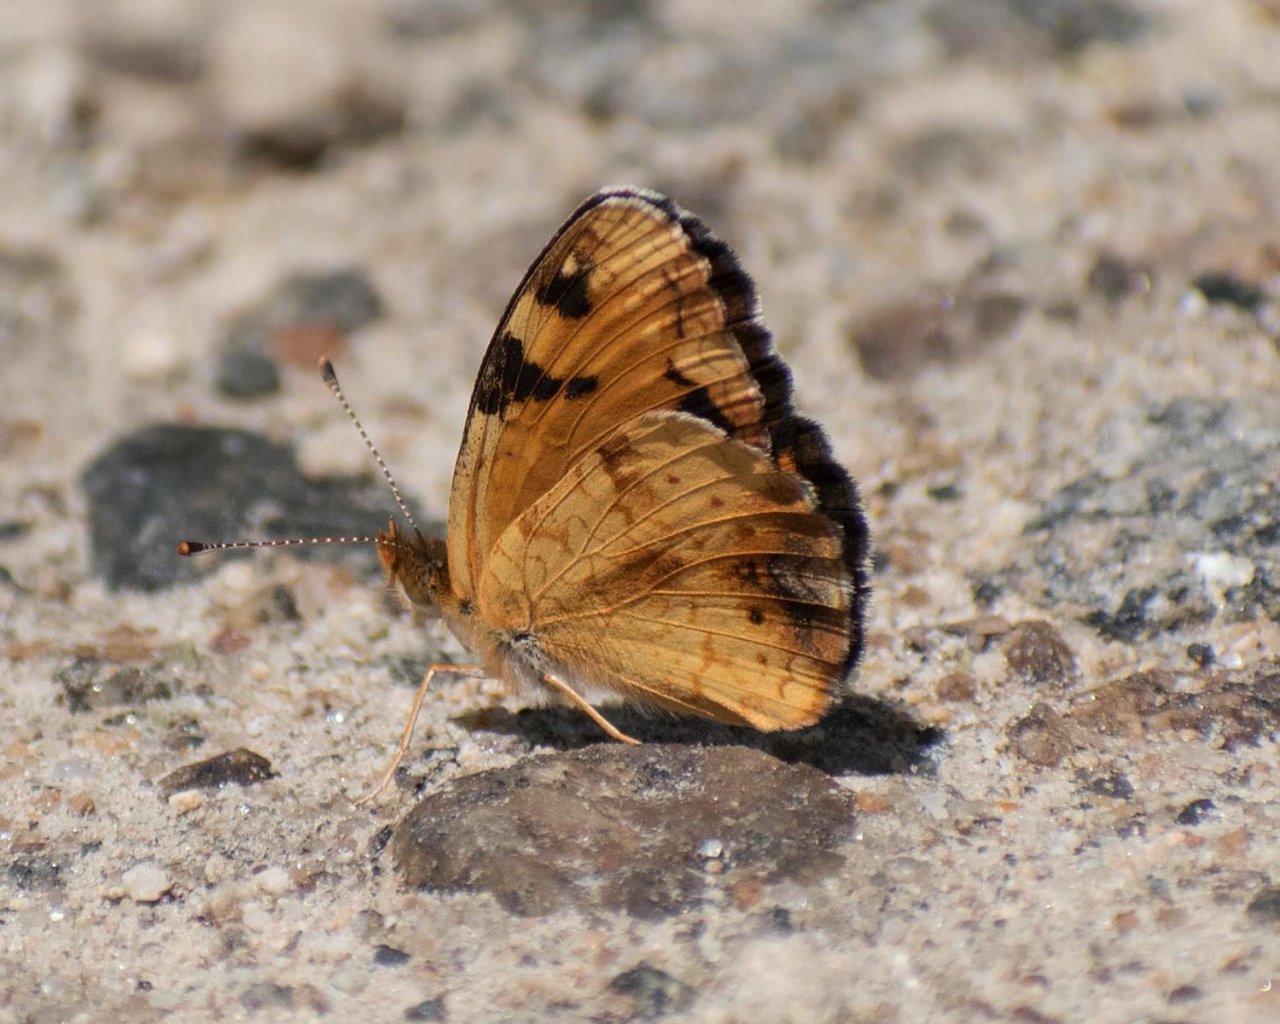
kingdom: Animalia
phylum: Arthropoda
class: Insecta
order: Lepidoptera
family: Nymphalidae
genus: Phyciodes
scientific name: Phyciodes tharos
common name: Northern Crescent
